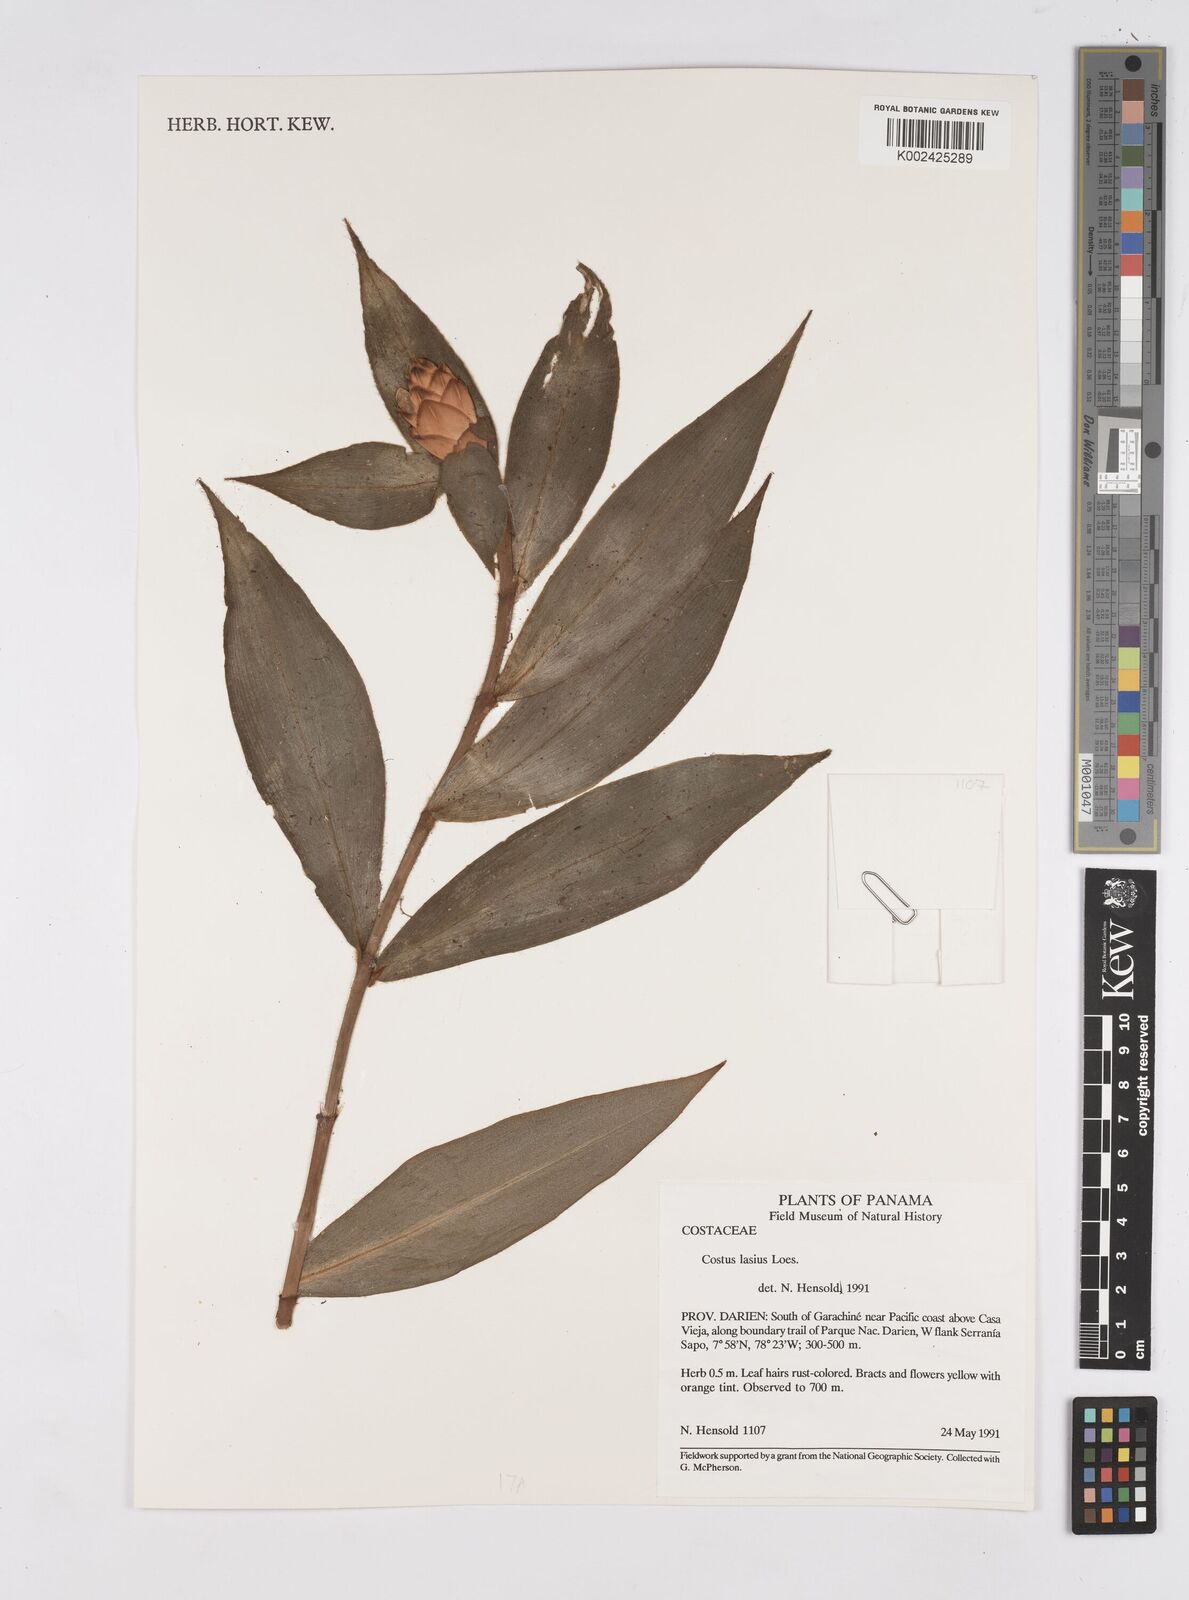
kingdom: Plantae
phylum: Tracheophyta
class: Liliopsida
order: Zingiberales
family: Costaceae
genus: Costus
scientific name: Costus lasius
